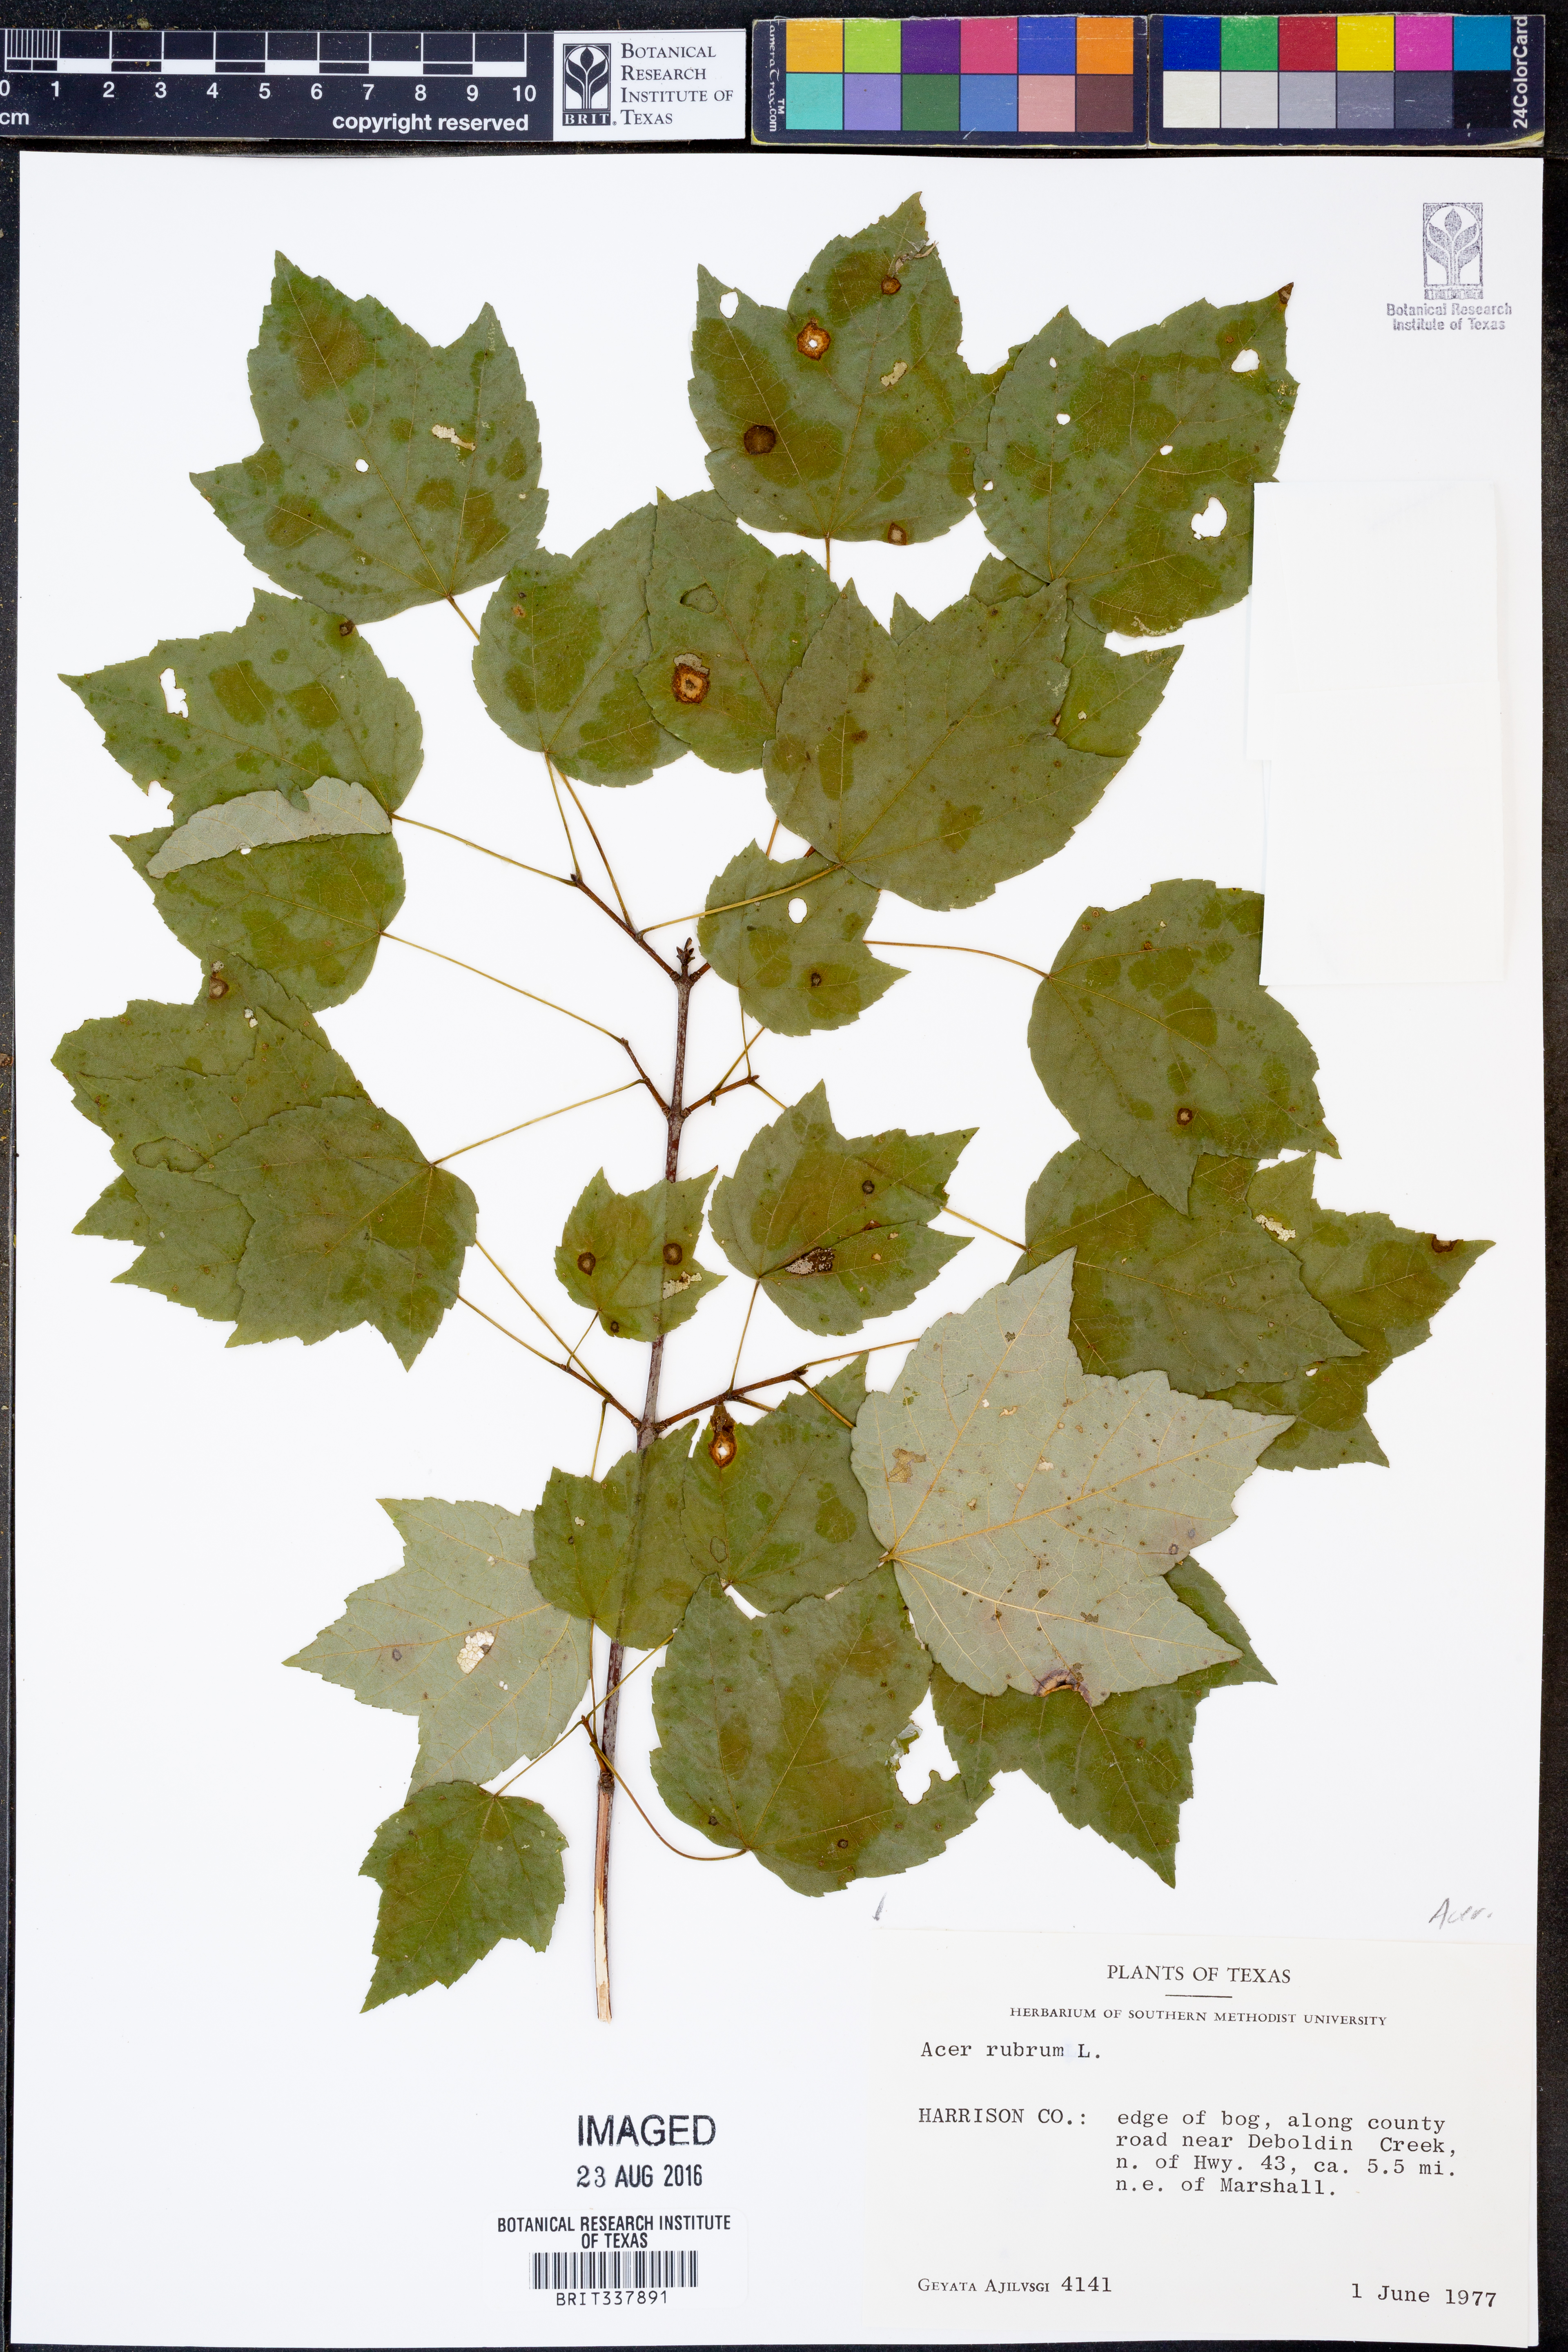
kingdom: Plantae
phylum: Tracheophyta
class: Magnoliopsida
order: Sapindales
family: Sapindaceae
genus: Acer
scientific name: Acer rubrum
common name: Red maple
